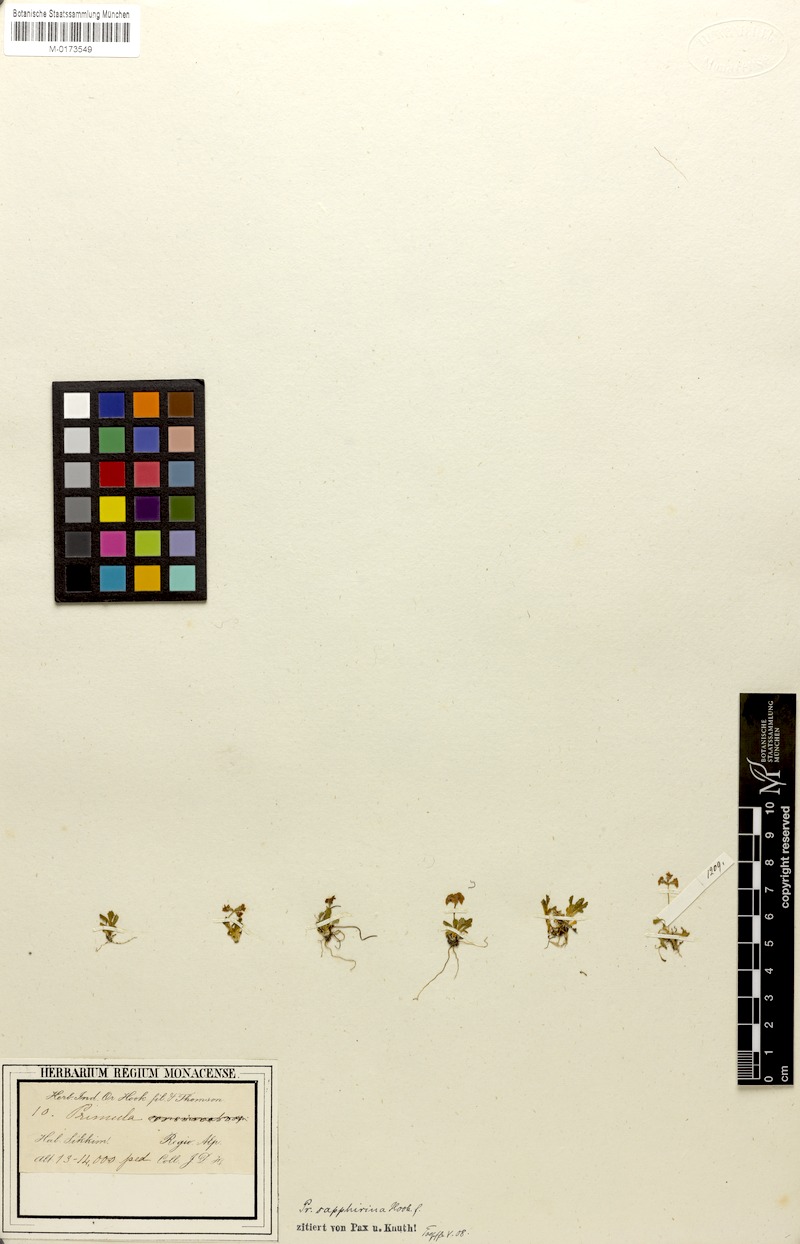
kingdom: Plantae
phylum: Tracheophyta
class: Magnoliopsida
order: Ericales
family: Primulaceae
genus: Primula
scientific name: Primula sapphirina
